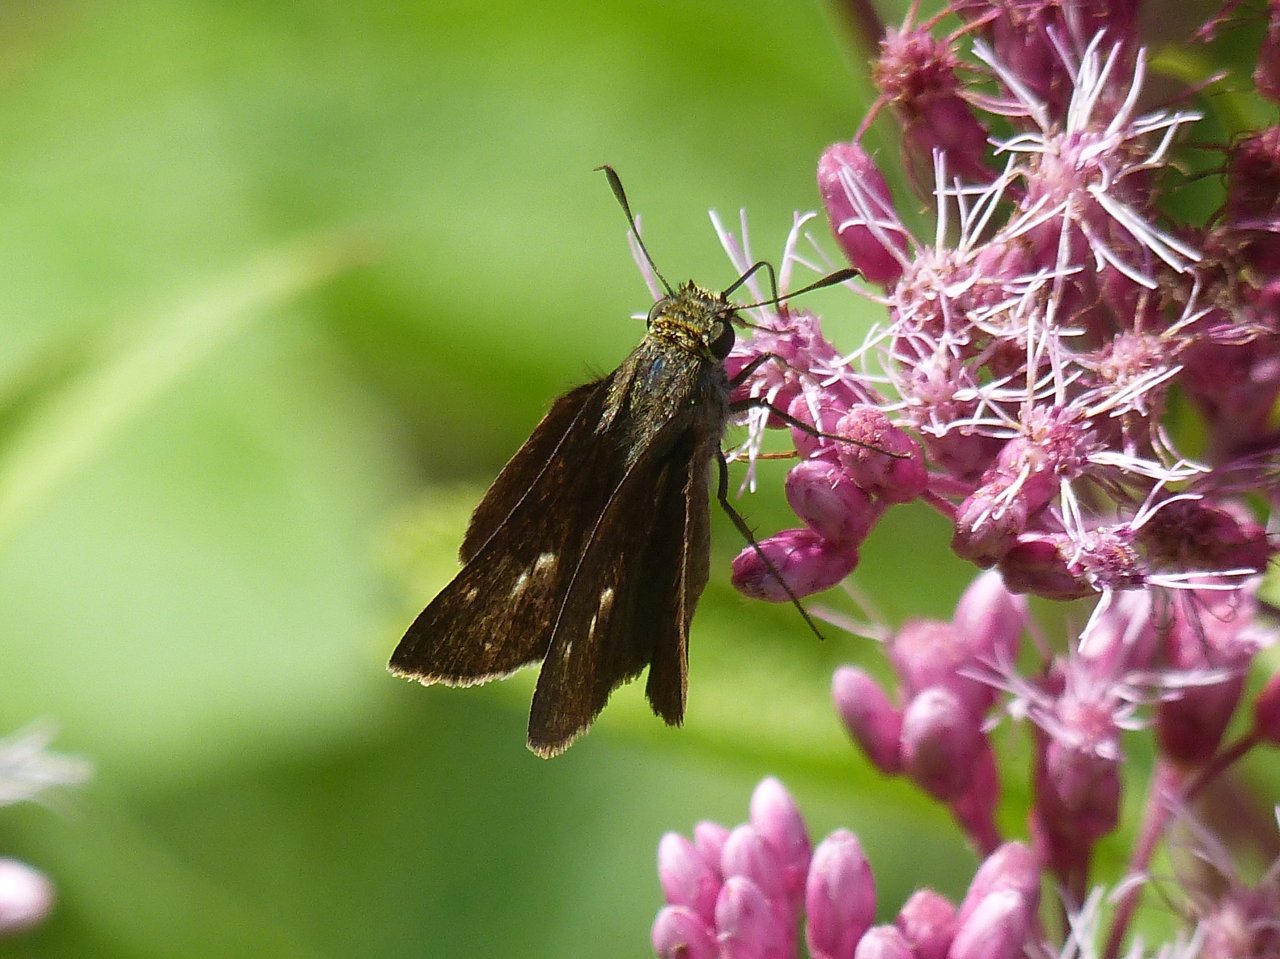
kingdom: Animalia
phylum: Arthropoda
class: Insecta
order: Lepidoptera
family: Hesperiidae
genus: Euphyes
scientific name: Euphyes vestris
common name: Dun Skipper
